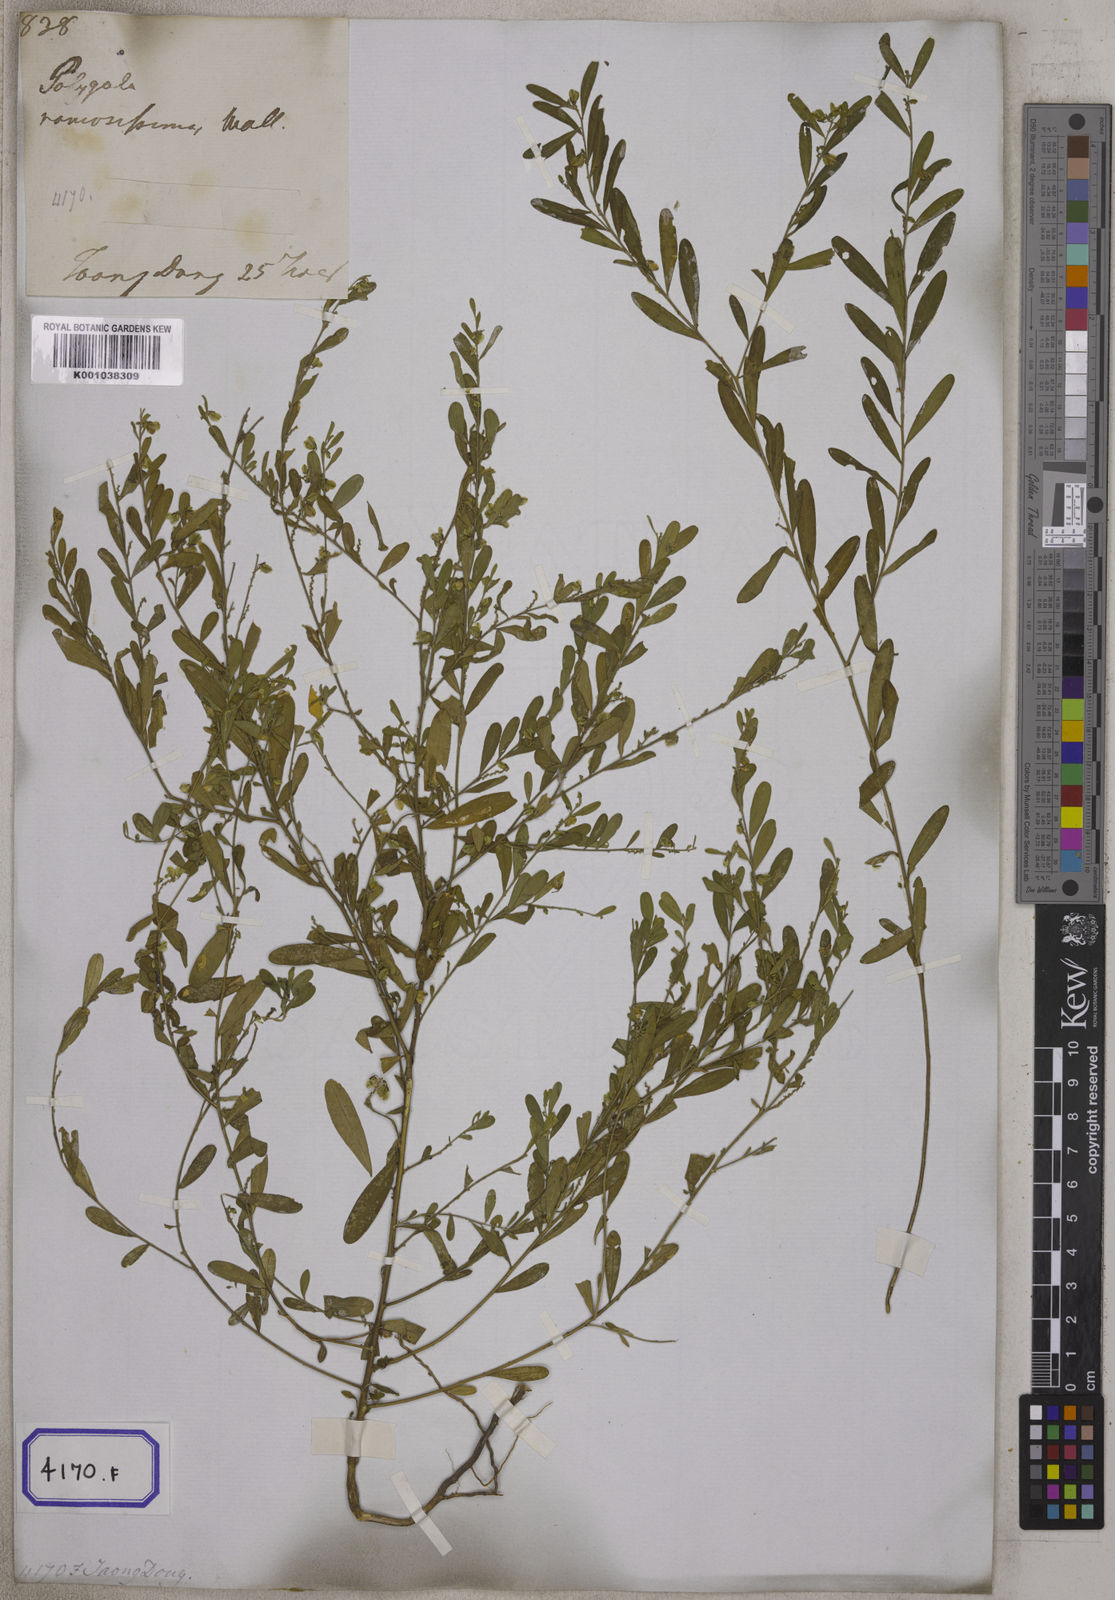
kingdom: Plantae
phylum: Tracheophyta
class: Magnoliopsida
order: Fabales
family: Polygalaceae
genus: Polygala
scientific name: Polygala telephioides
